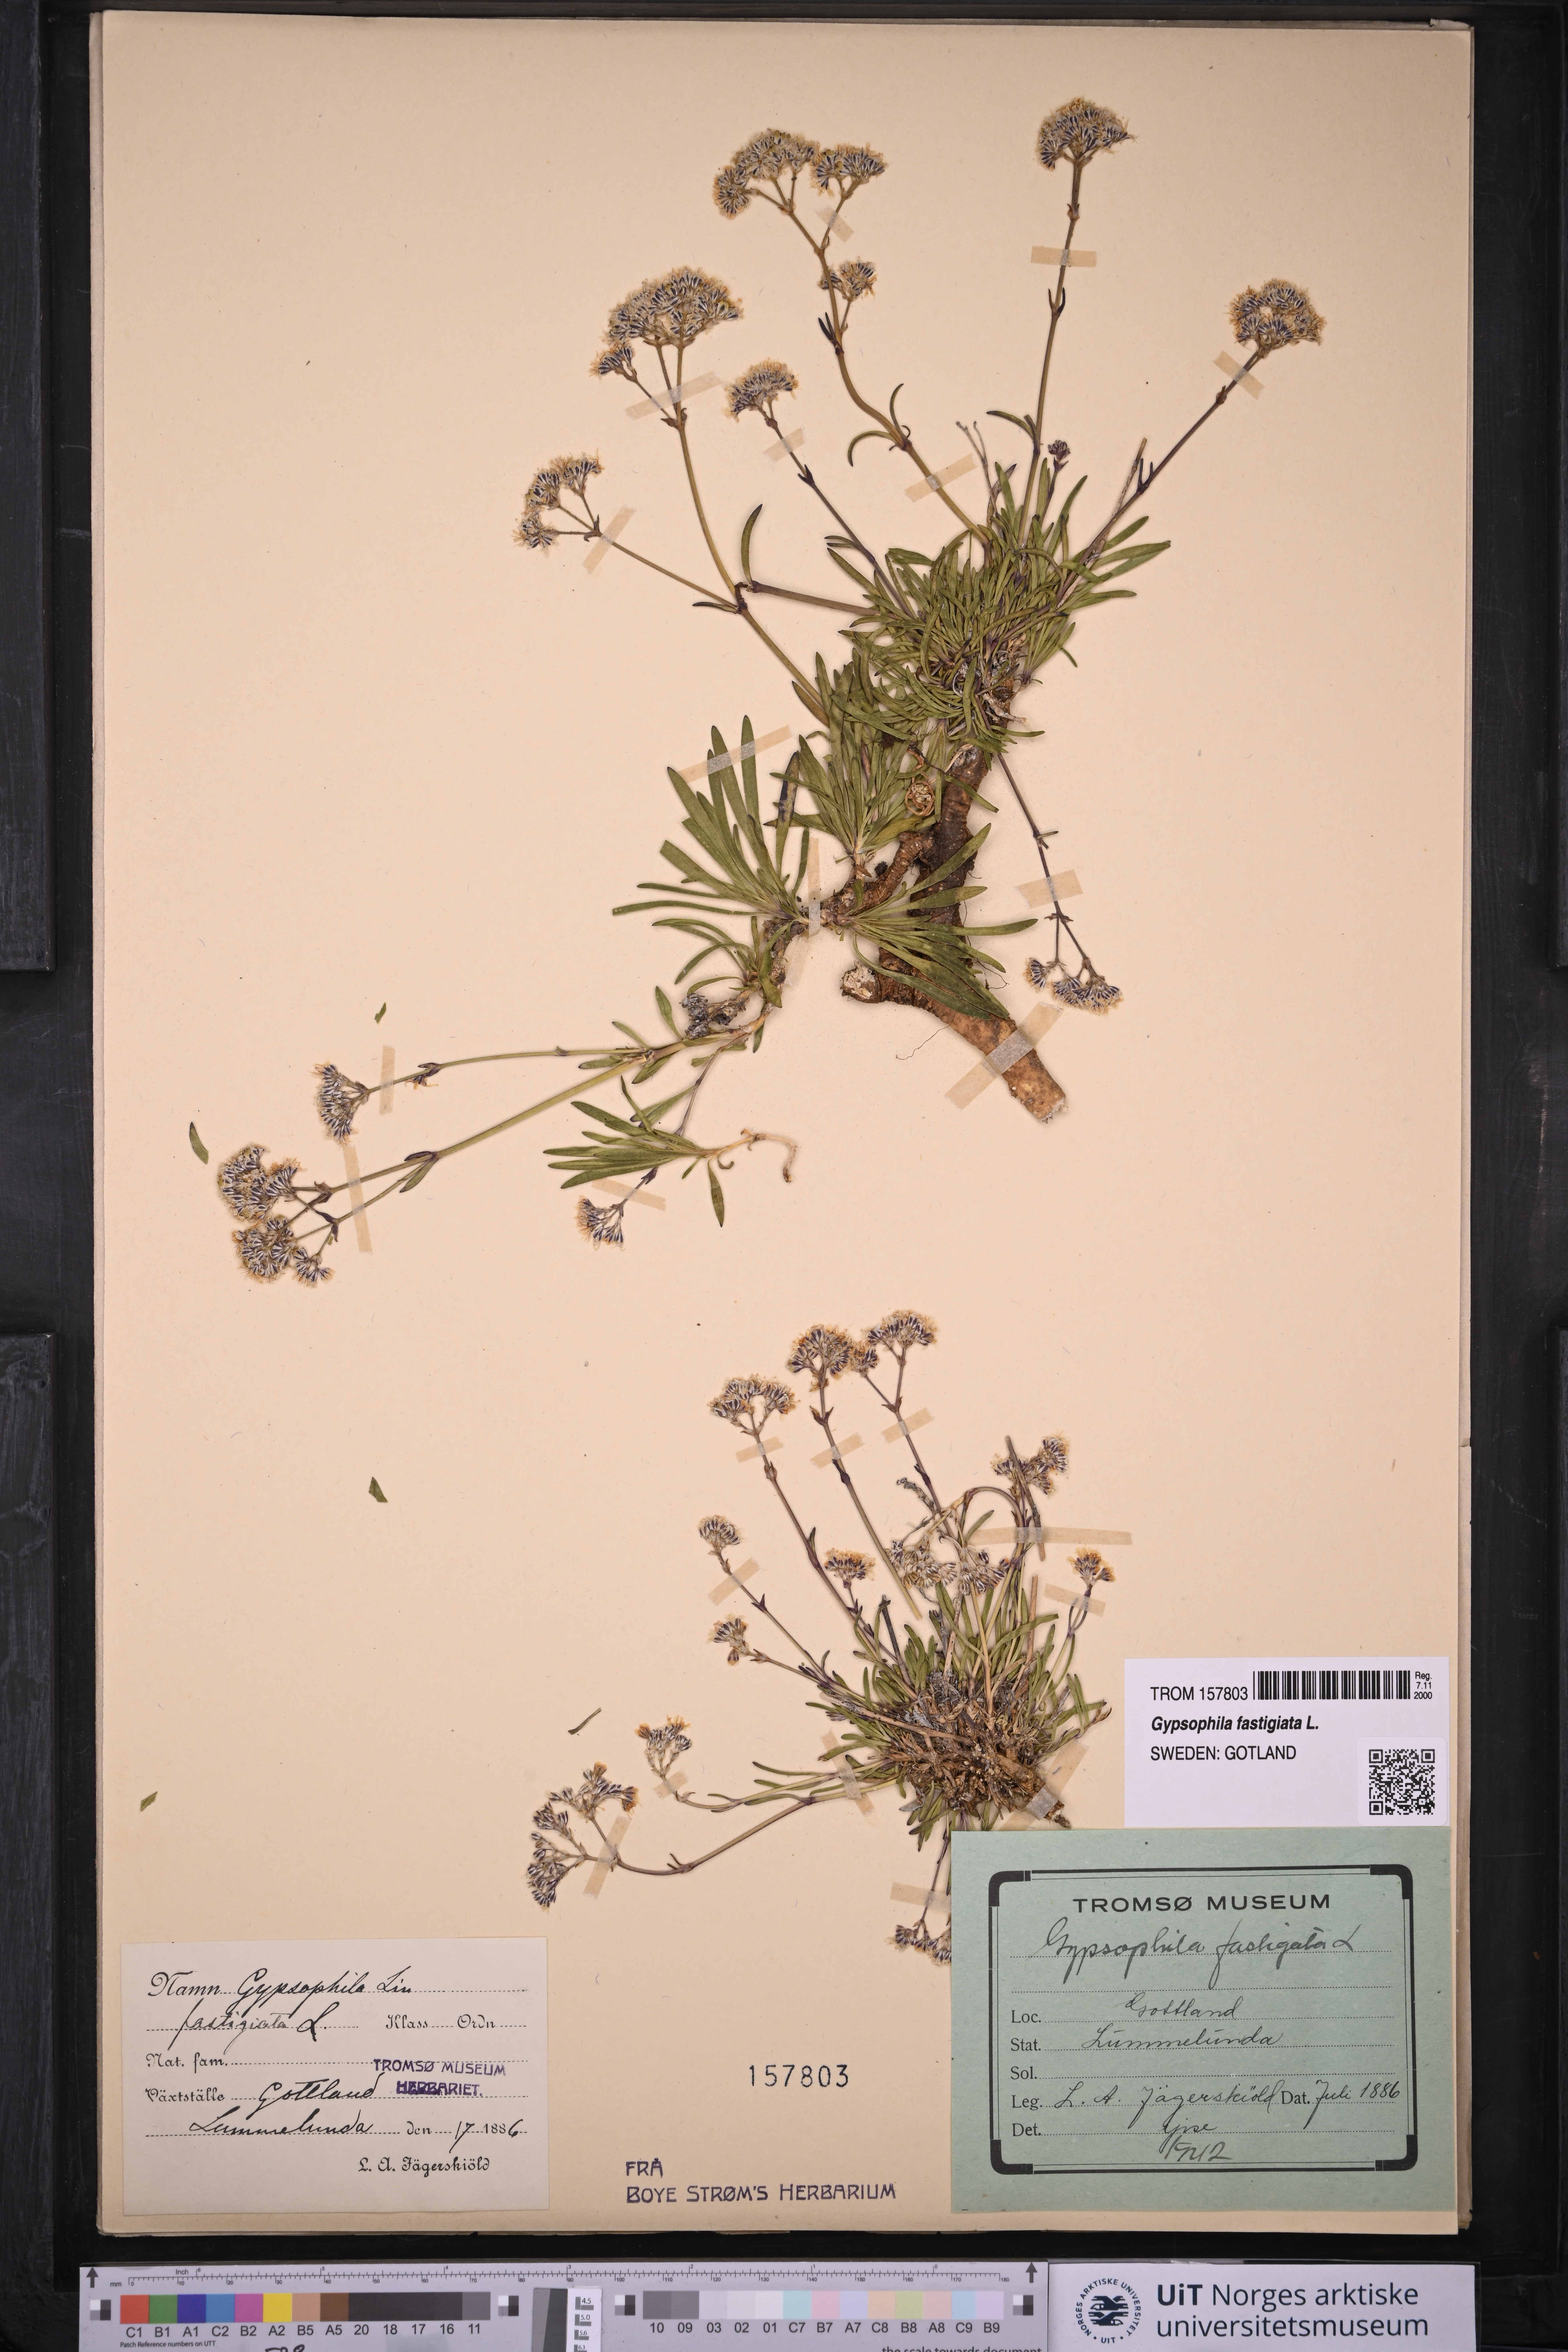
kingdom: Plantae
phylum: Tracheophyta
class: Magnoliopsida
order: Caryophyllales
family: Caryophyllaceae
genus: Gypsophila
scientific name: Gypsophila fastigiata
